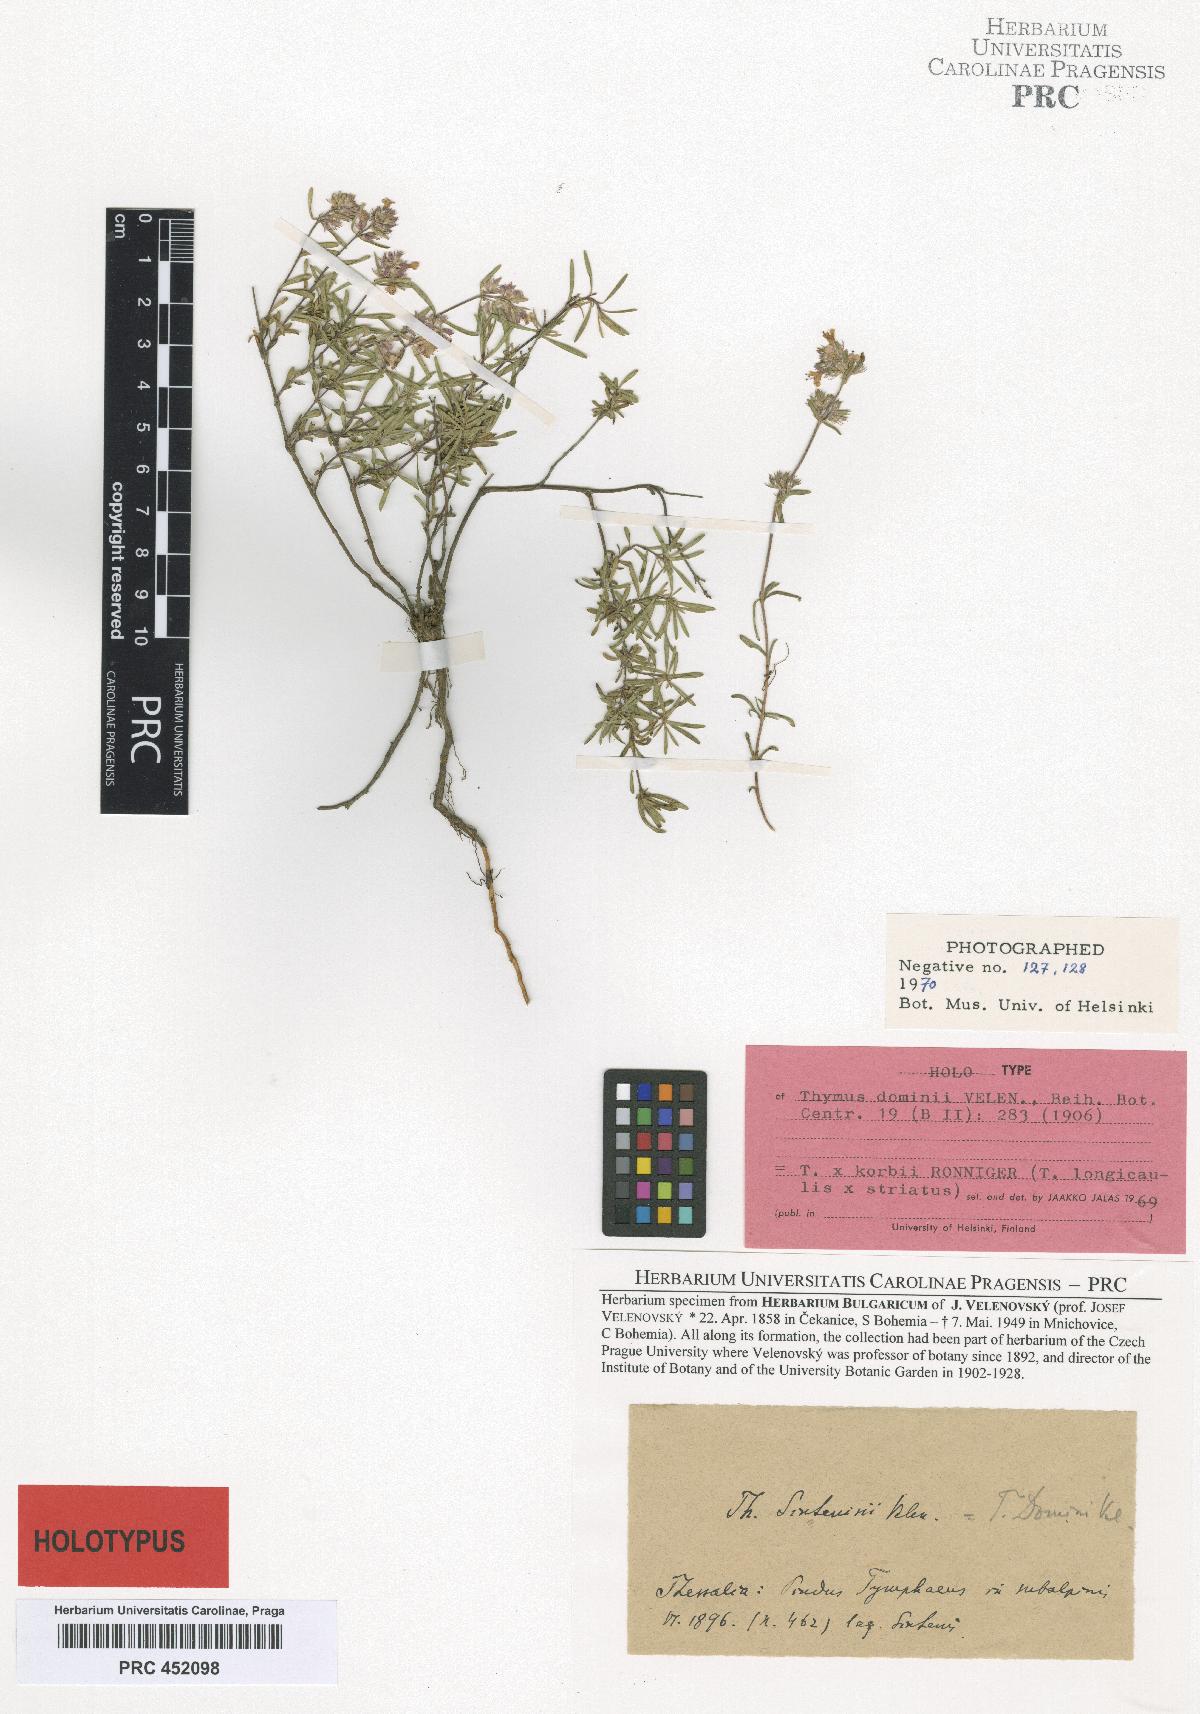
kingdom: Plantae
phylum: Tracheophyta
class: Magnoliopsida
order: Lamiales
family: Lamiaceae
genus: Thymus
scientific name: Thymus sibthorpii
